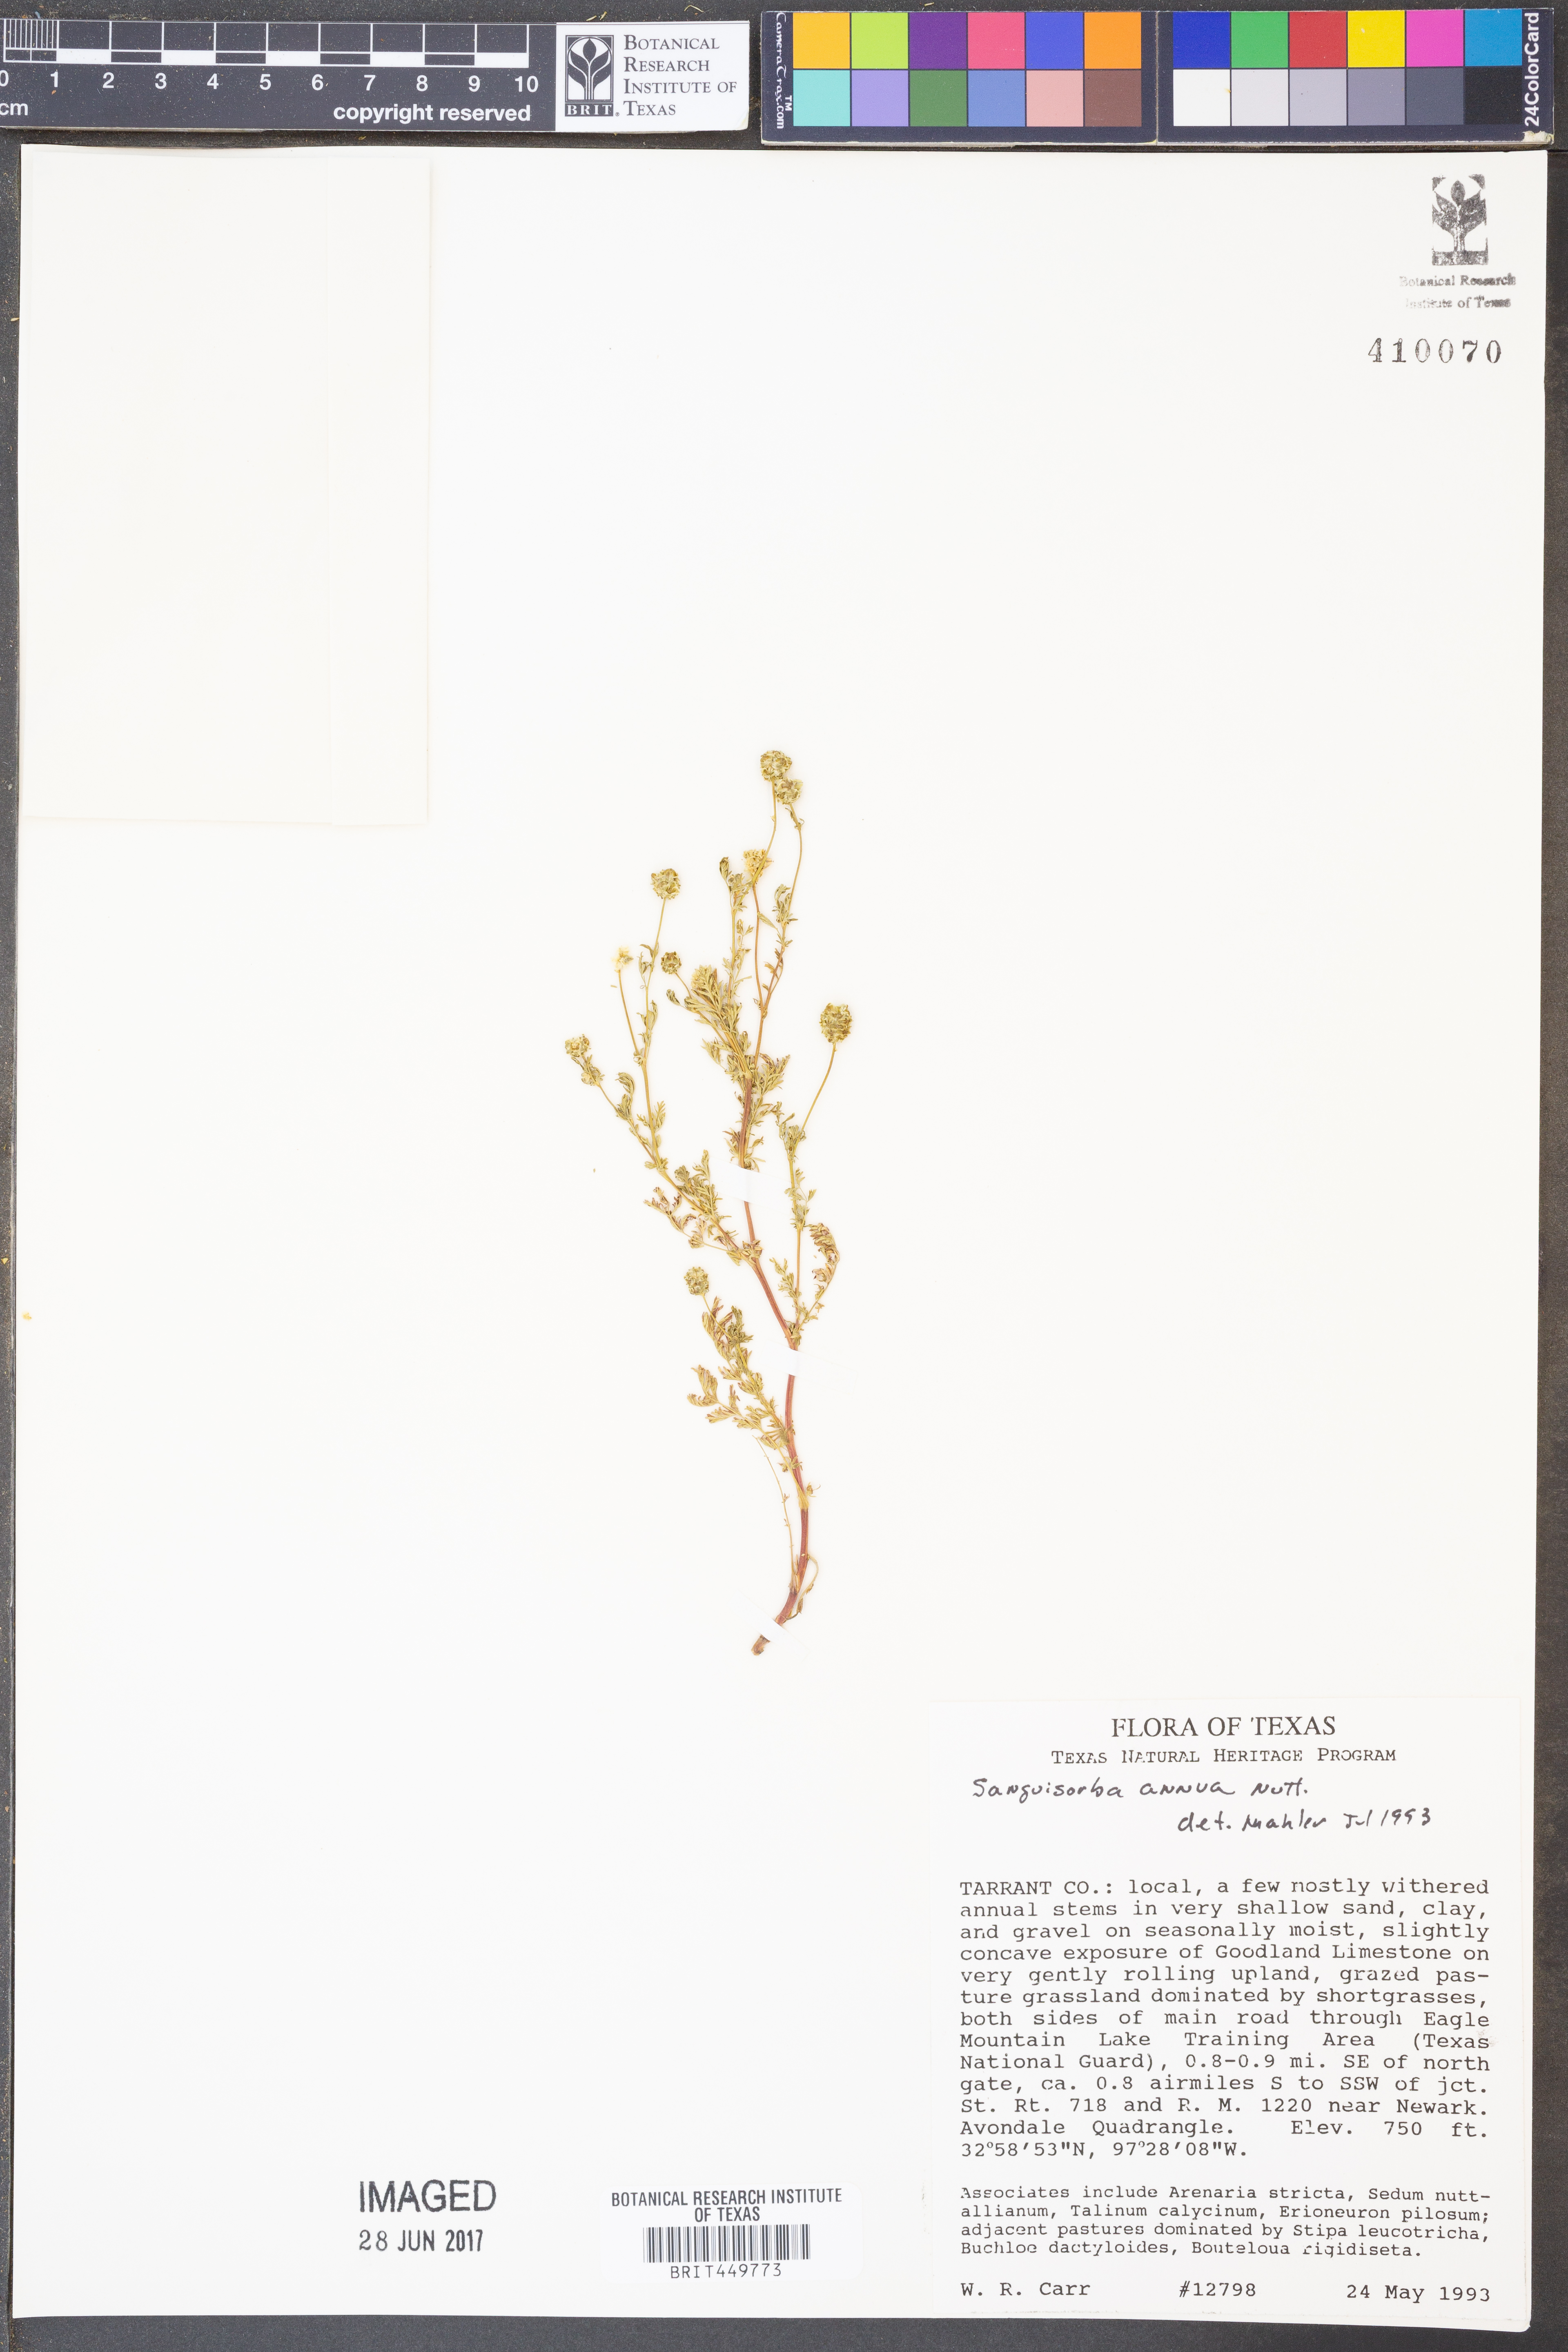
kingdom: Plantae
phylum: Tracheophyta
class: Magnoliopsida
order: Rosales
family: Rosaceae
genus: Poteridium
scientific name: Poteridium annuum
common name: Annual burnet
